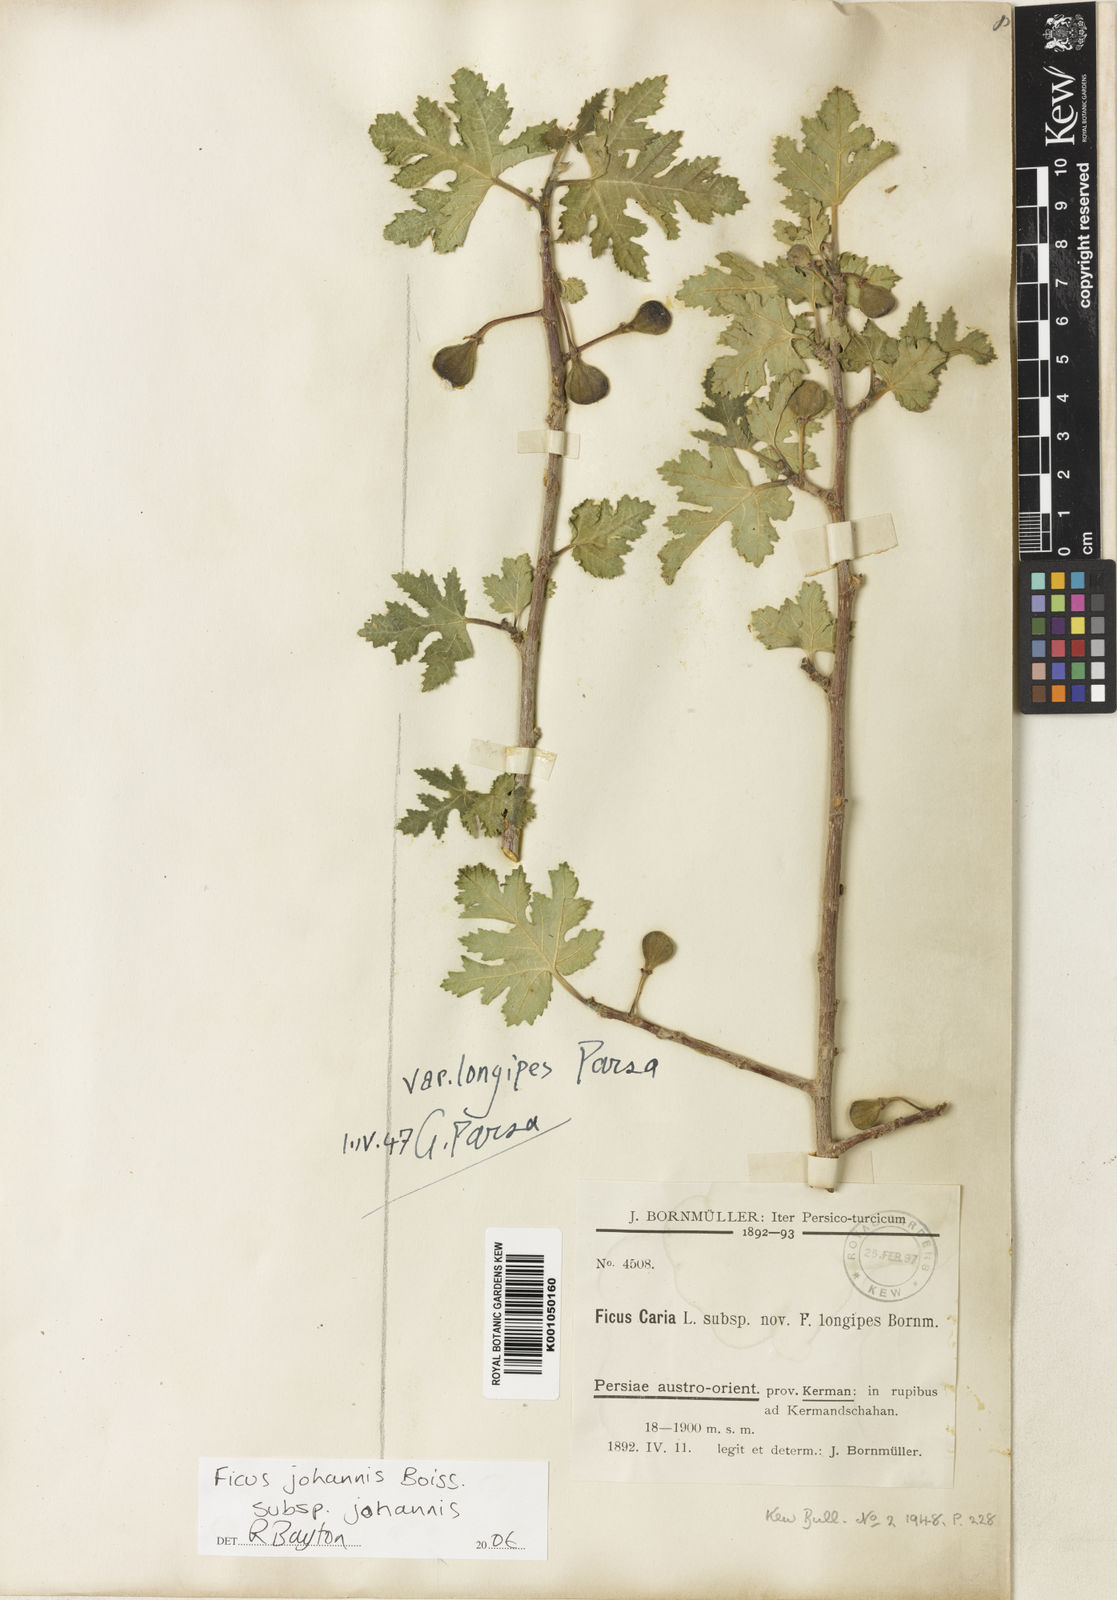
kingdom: Plantae
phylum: Tracheophyta
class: Magnoliopsida
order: Rosales
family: Moraceae
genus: Ficus
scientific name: Ficus carica
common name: Fig
